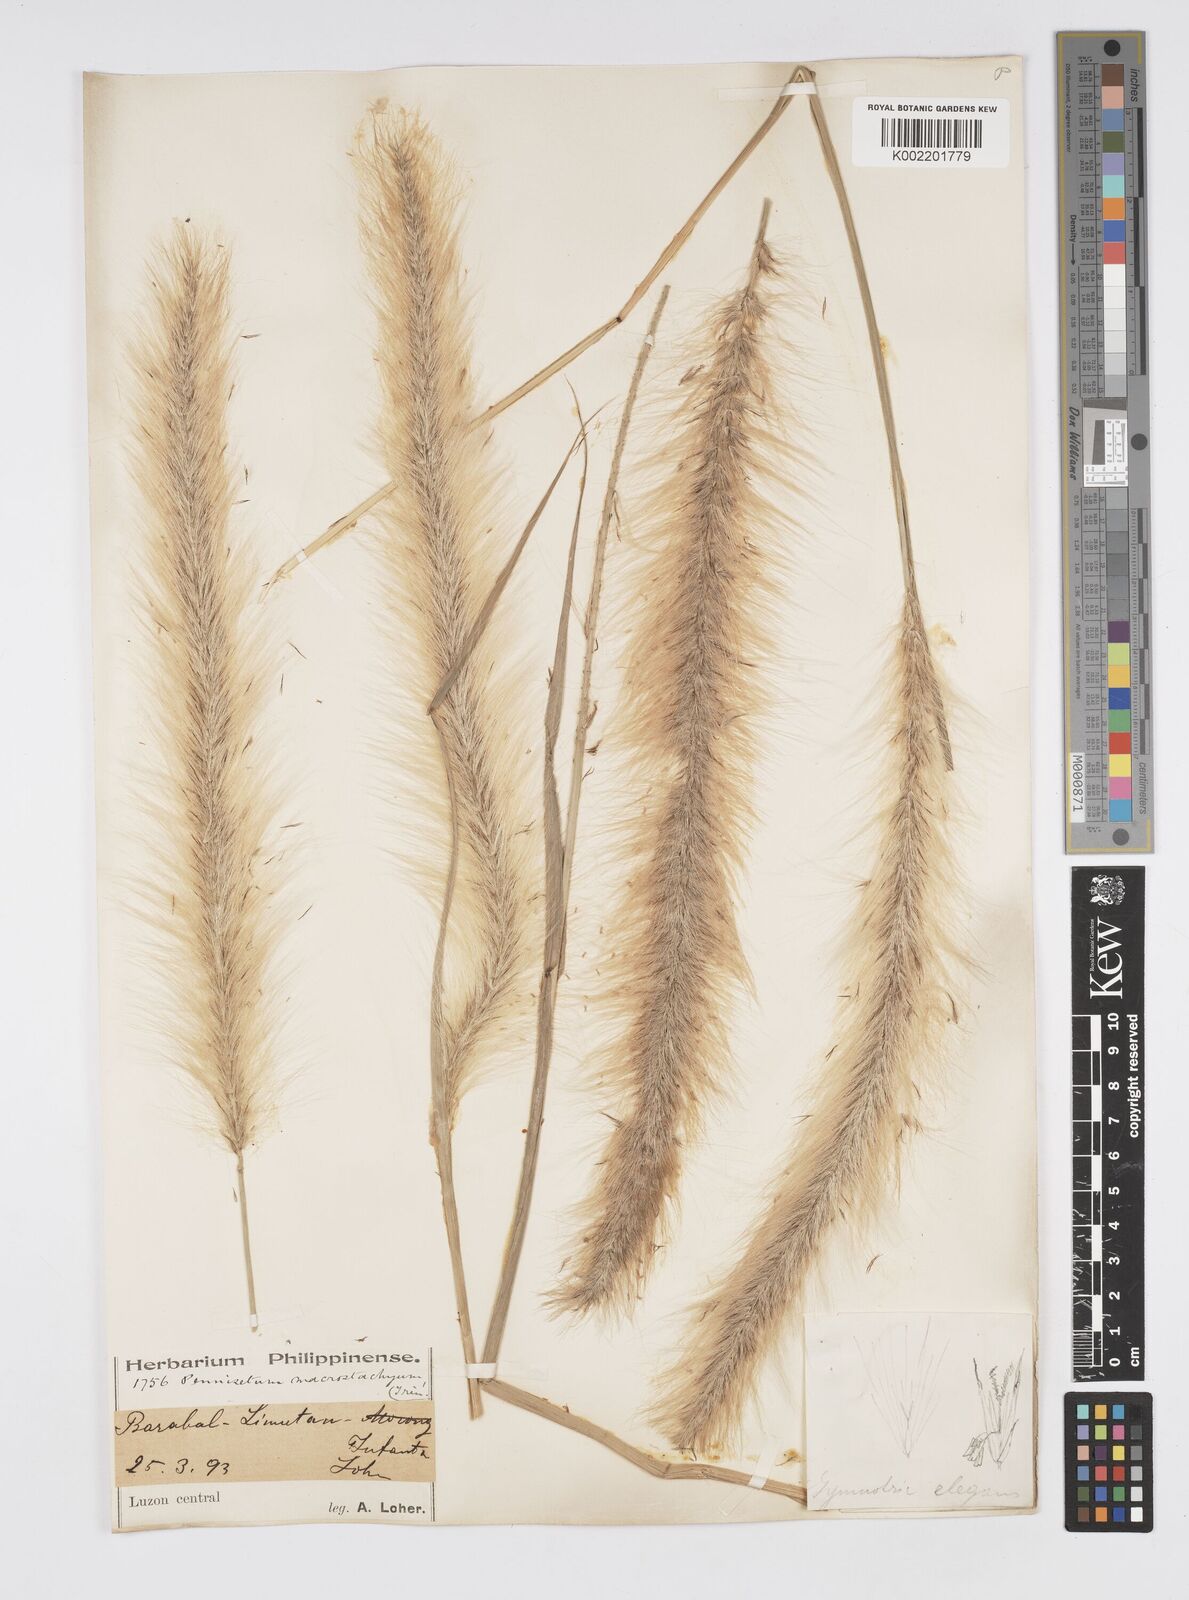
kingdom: Plantae
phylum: Tracheophyta
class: Liliopsida
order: Poales
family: Poaceae
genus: Cenchrus
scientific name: Cenchrus purpureus
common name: Elephant grass
